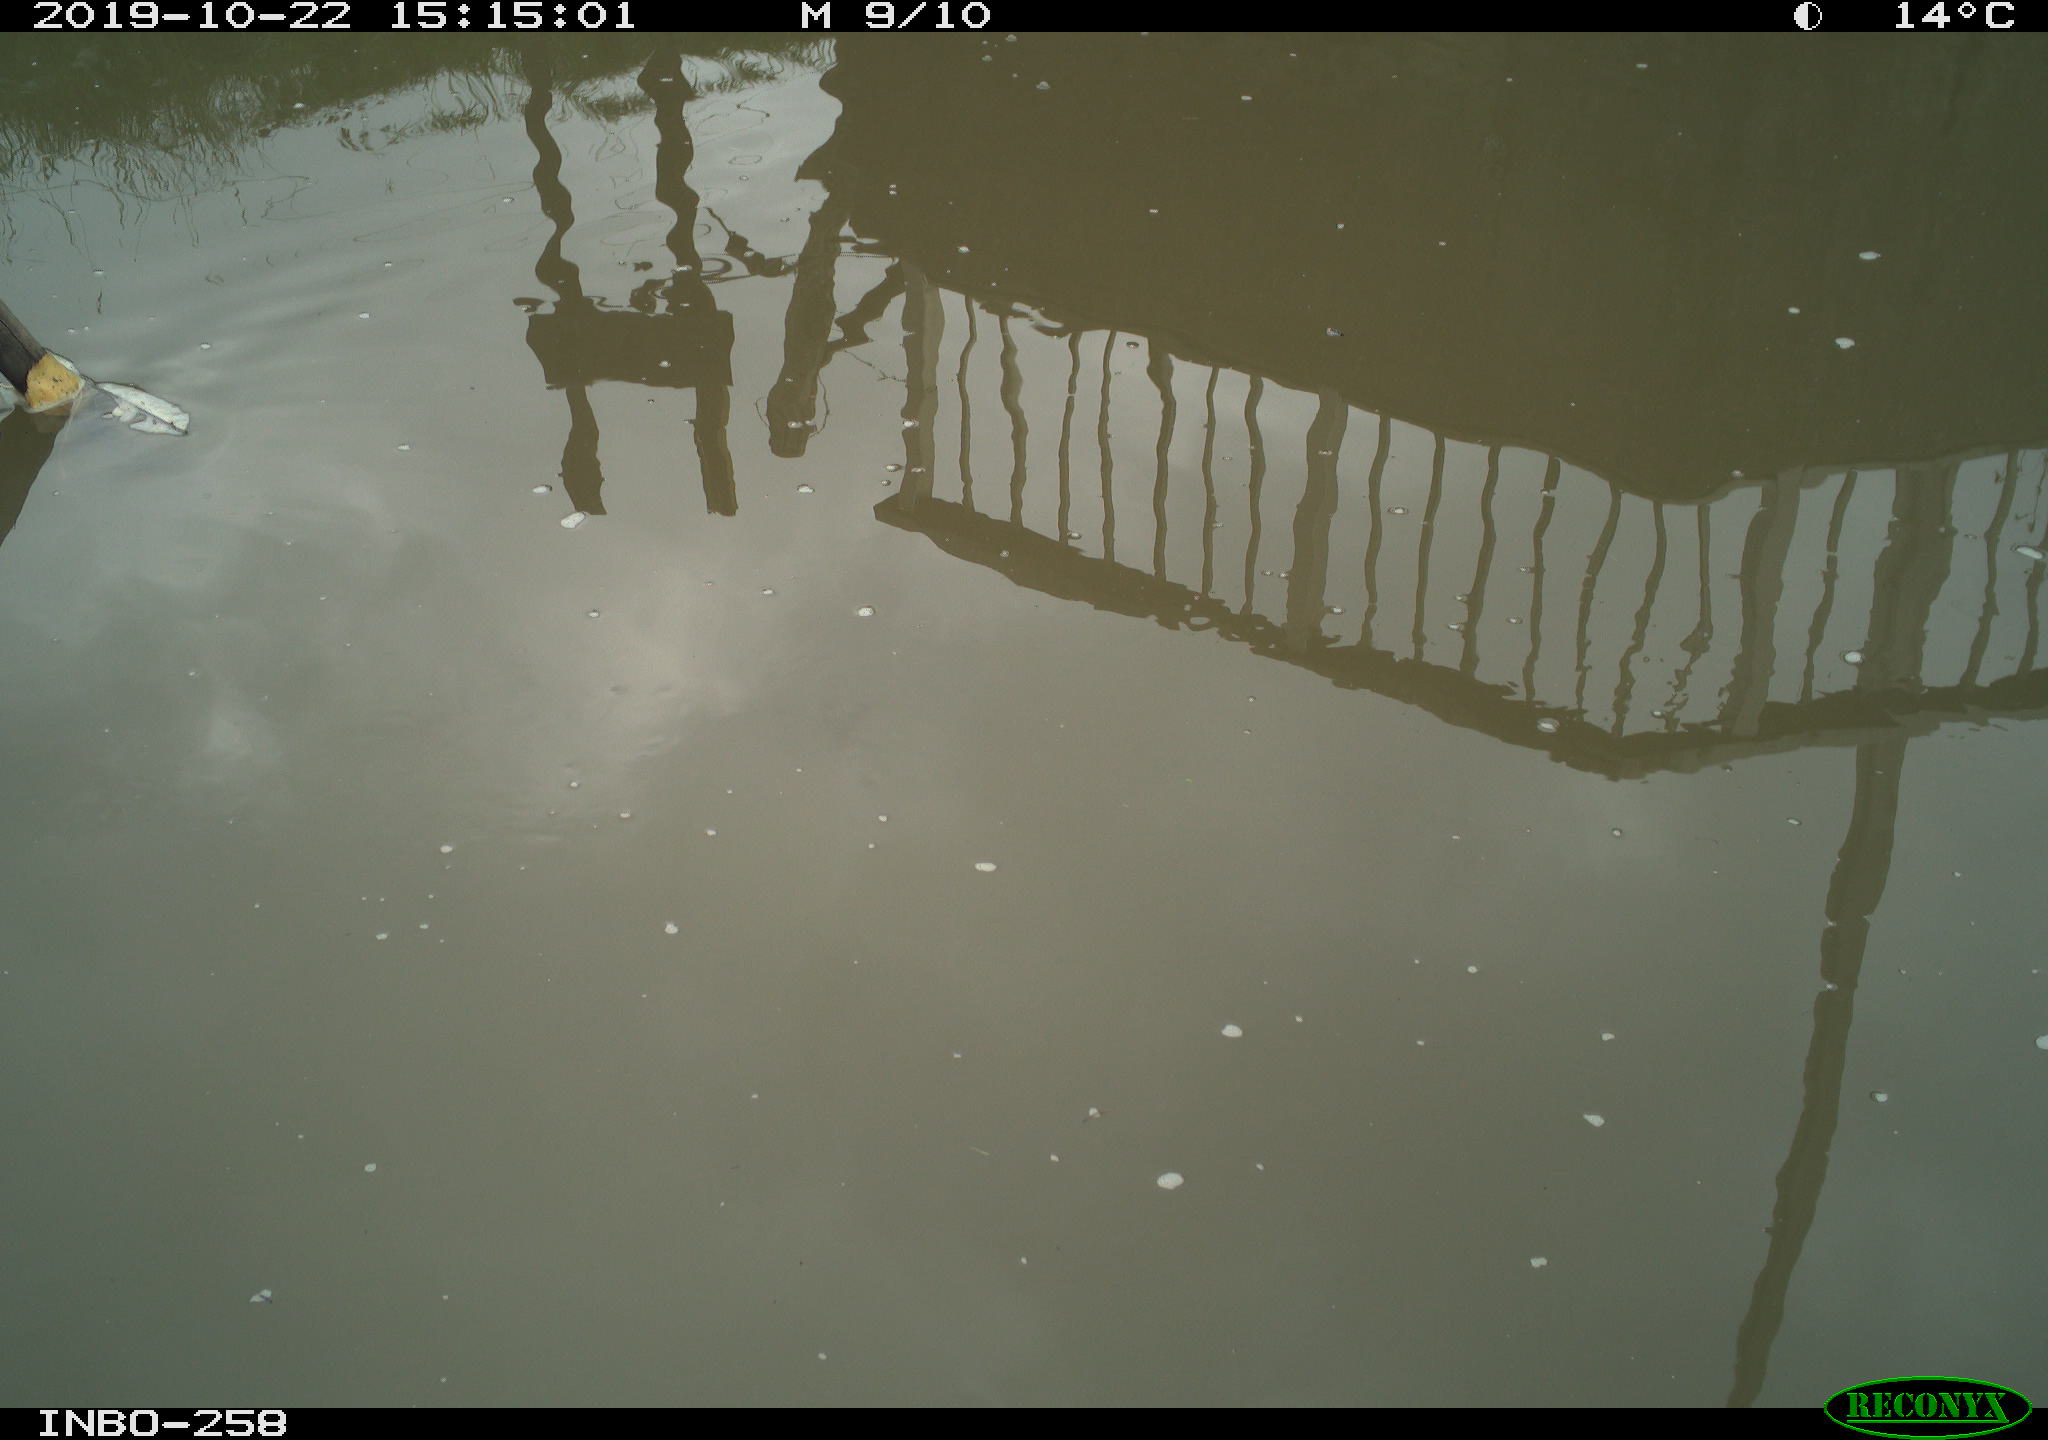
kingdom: Animalia
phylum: Chordata
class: Aves
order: Gruiformes
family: Rallidae
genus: Gallinula
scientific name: Gallinula chloropus
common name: Common moorhen
